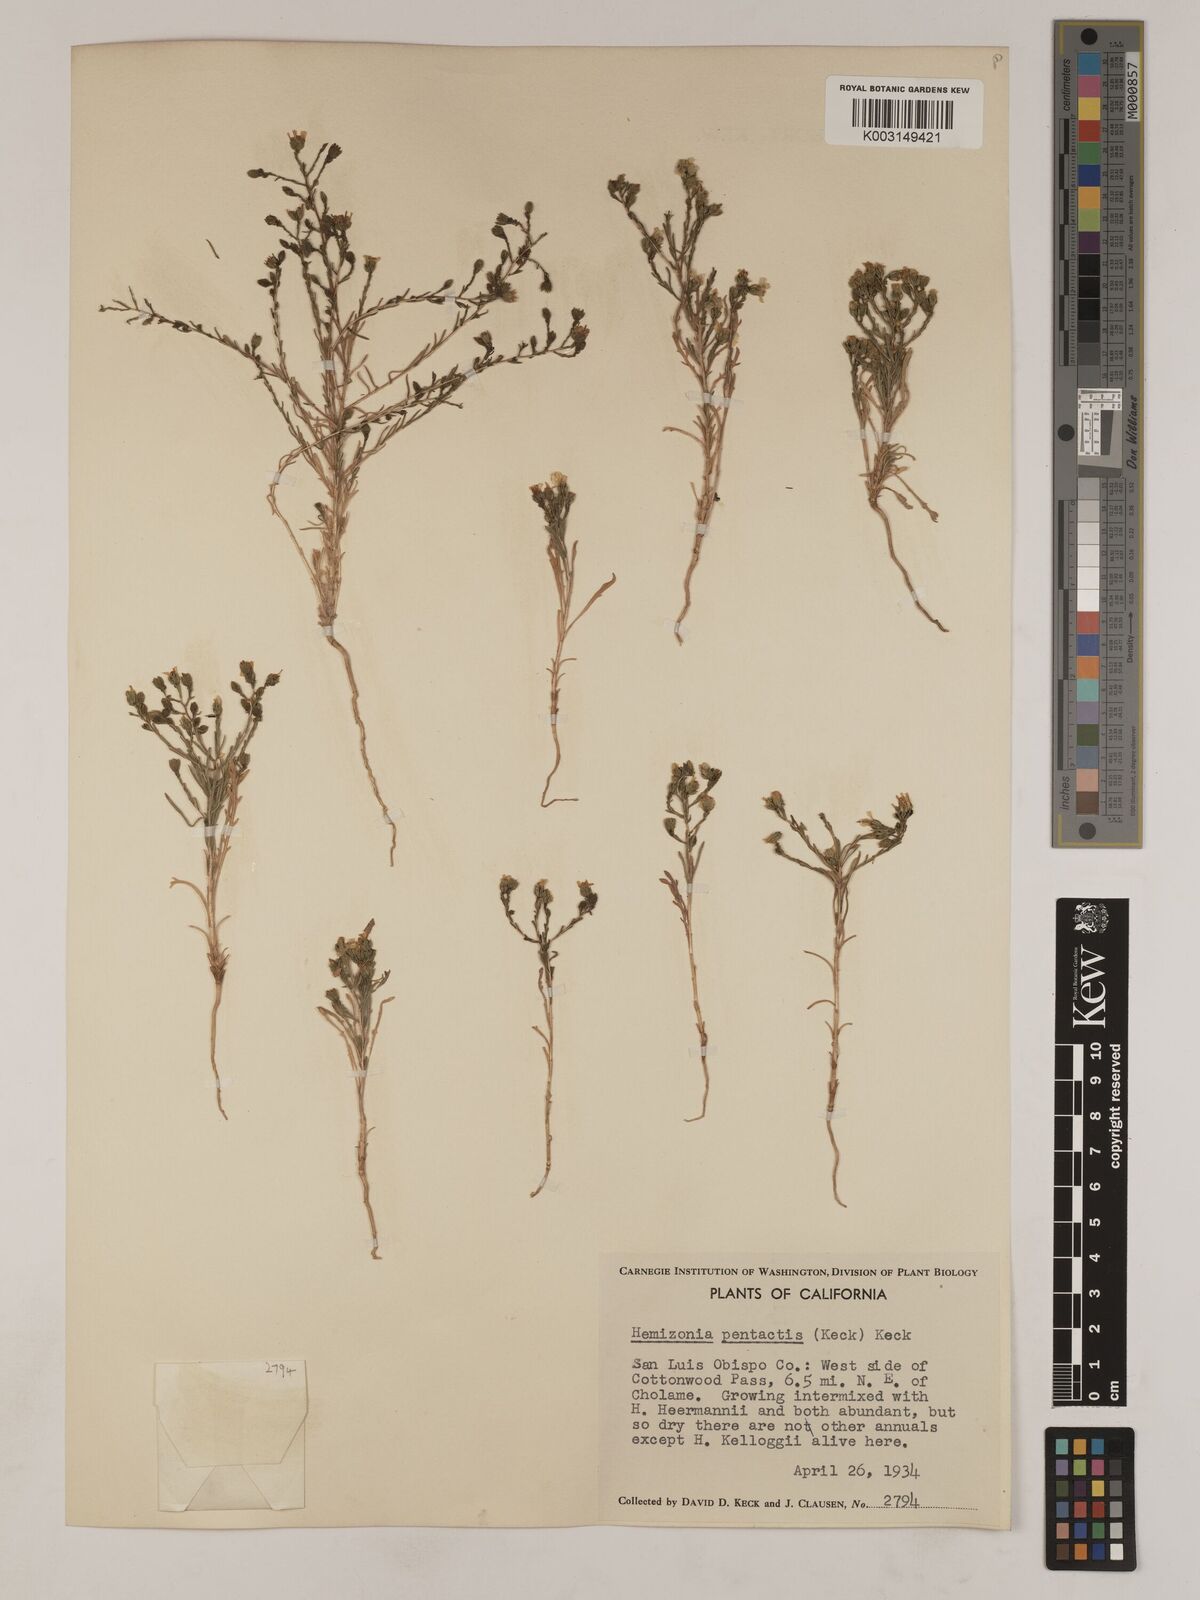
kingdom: Plantae
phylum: Tracheophyta
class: Magnoliopsida
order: Asterales
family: Asteraceae
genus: Deinandra
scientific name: Deinandra pentactis
